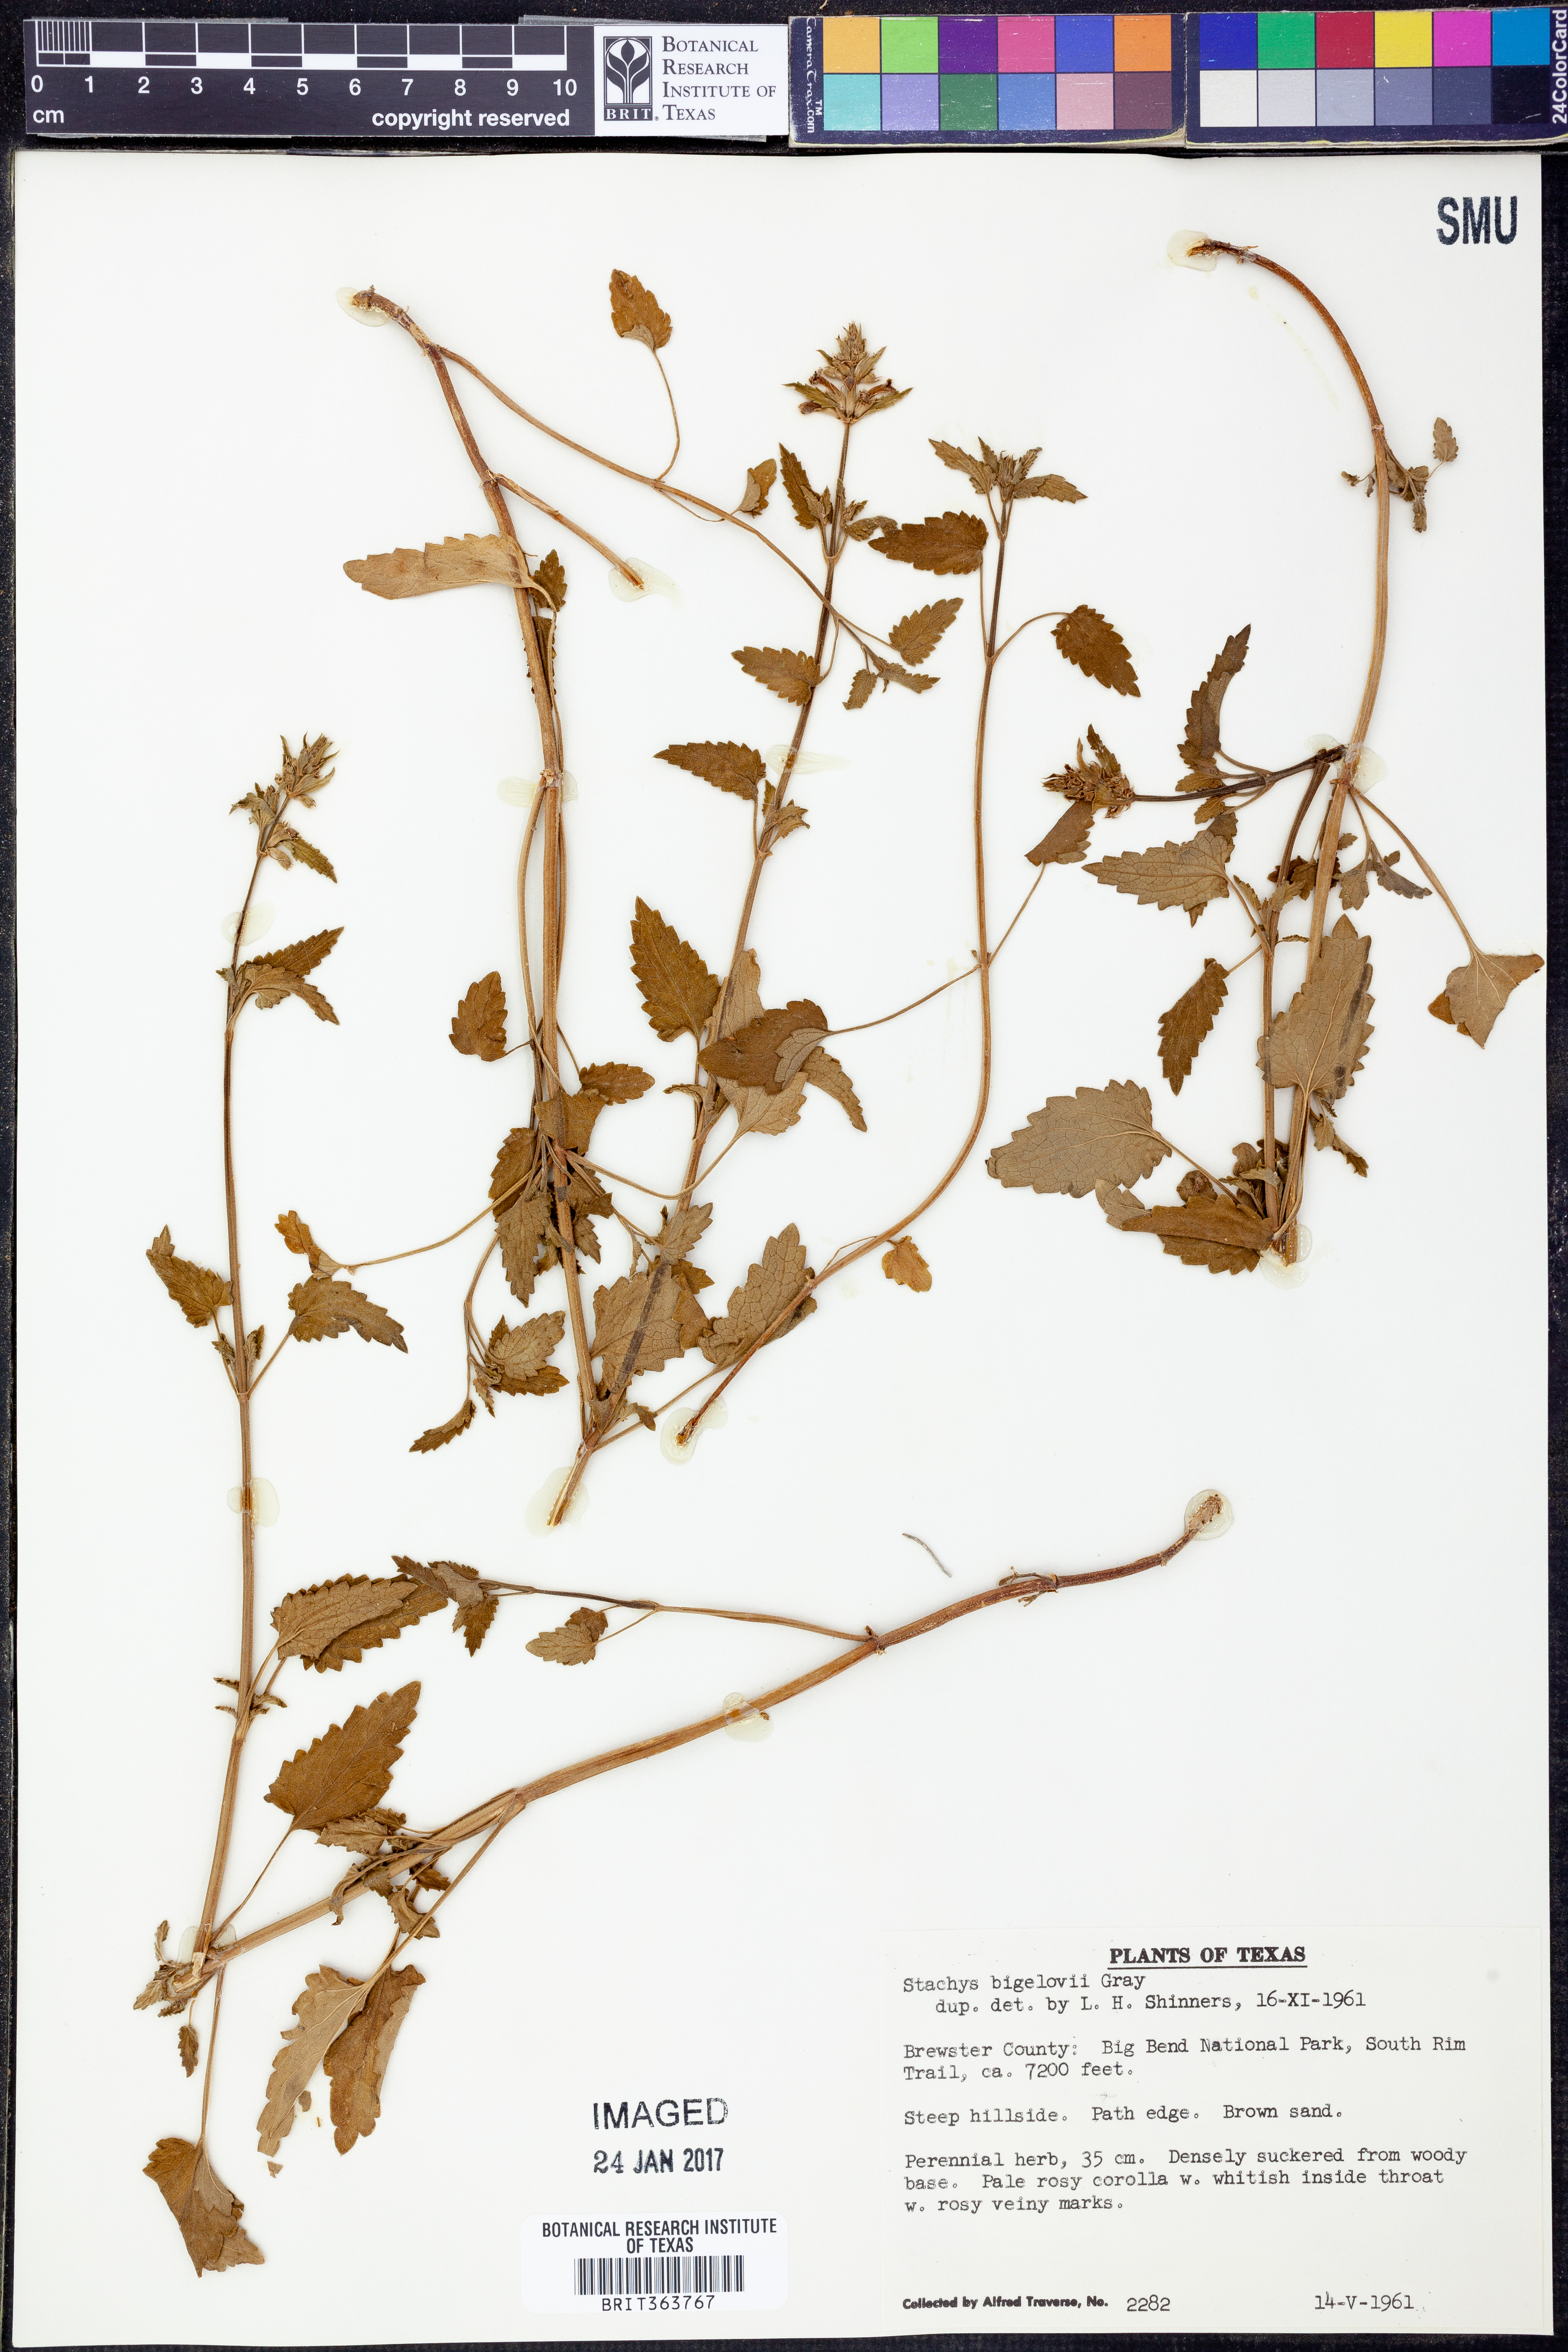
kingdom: Plantae
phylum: Tracheophyta
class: Magnoliopsida
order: Lamiales
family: Lamiaceae
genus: Stachys
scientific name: Stachys bigelovii
